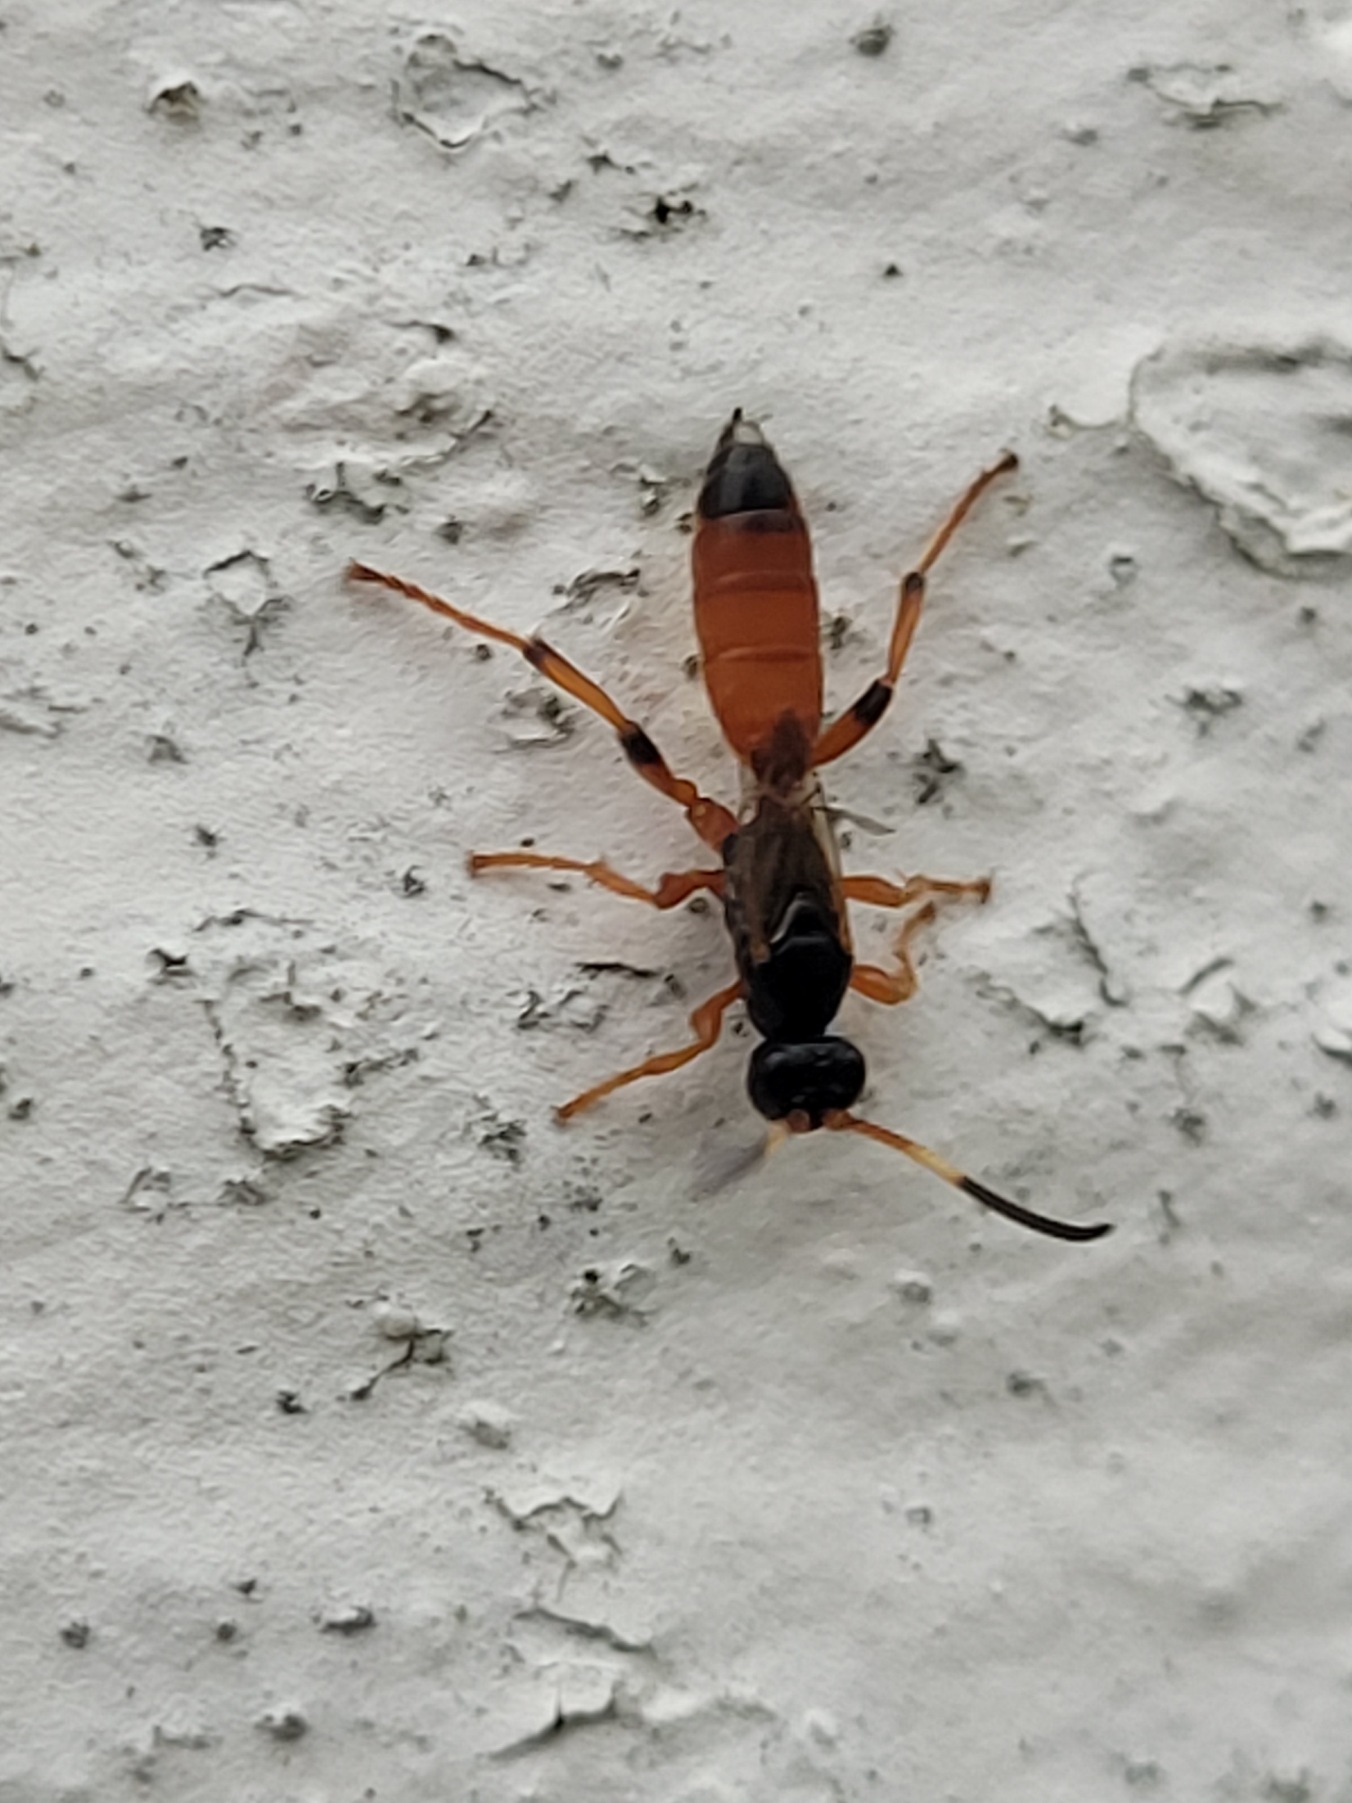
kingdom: Animalia
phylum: Arthropoda
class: Insecta
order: Hymenoptera
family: Ichneumonidae
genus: Ichneumon
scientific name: Ichneumon oblongus
